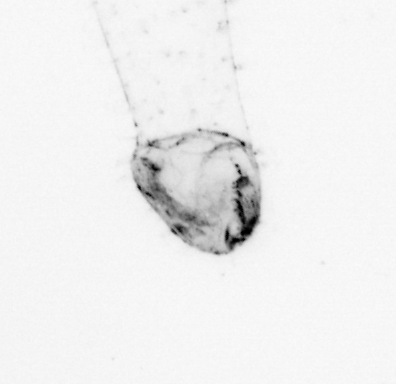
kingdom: Animalia
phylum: Chaetognatha
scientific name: Chaetognatha
